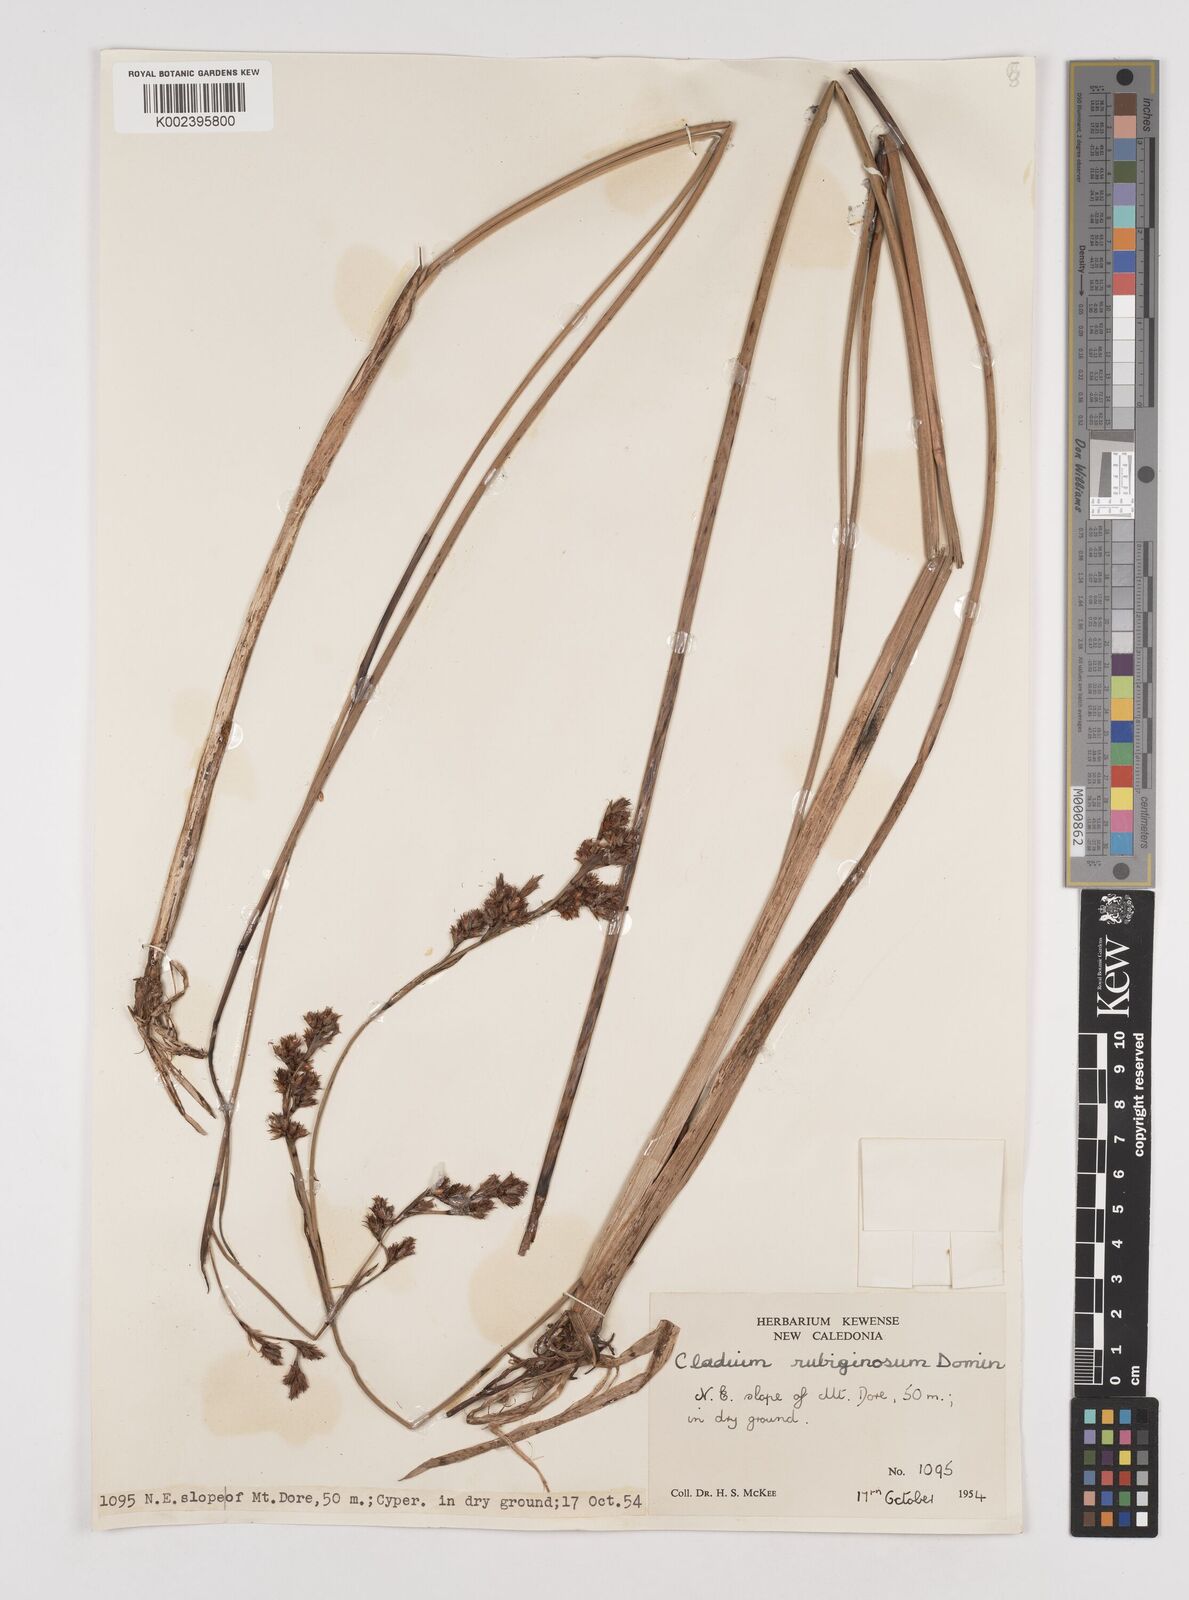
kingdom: Plantae
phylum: Tracheophyta
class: Liliopsida
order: Poales
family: Cyperaceae
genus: Machaerina
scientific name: Machaerina rubiginosa
